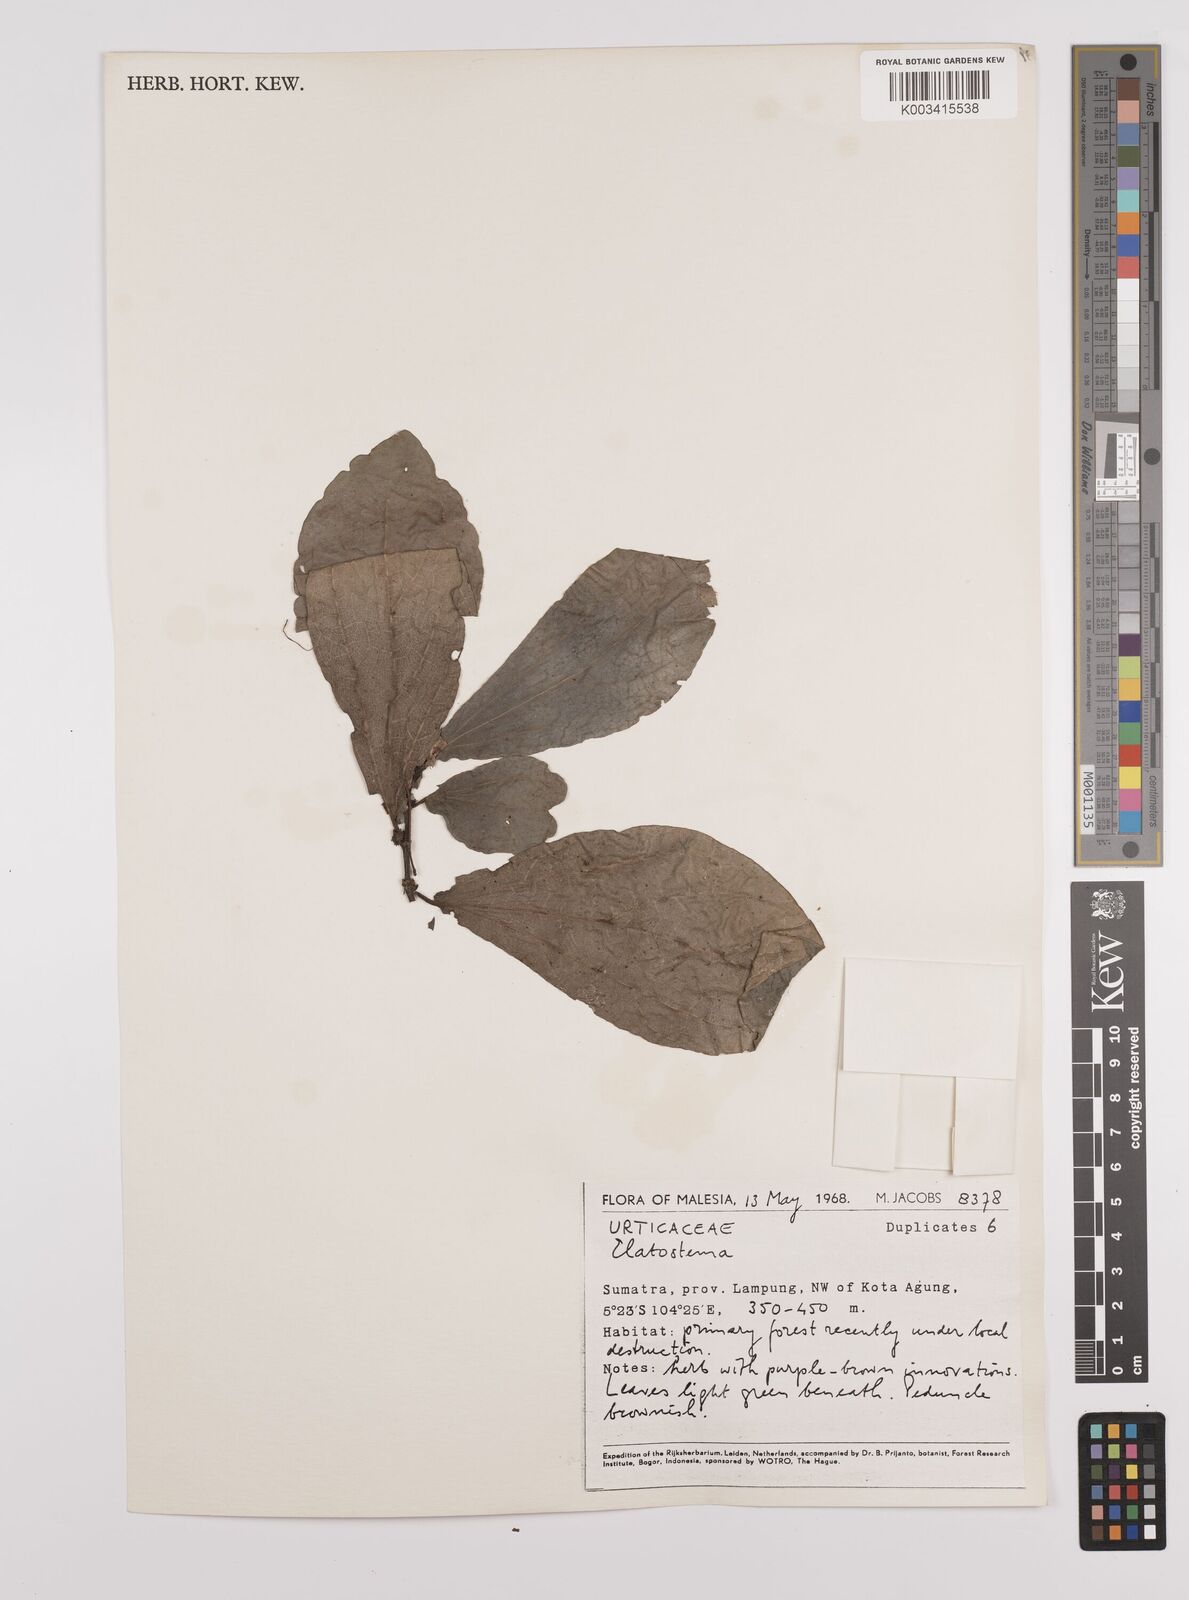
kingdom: Plantae
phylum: Tracheophyta
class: Magnoliopsida
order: Rosales
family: Urticaceae
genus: Elatostema
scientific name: Elatostema
